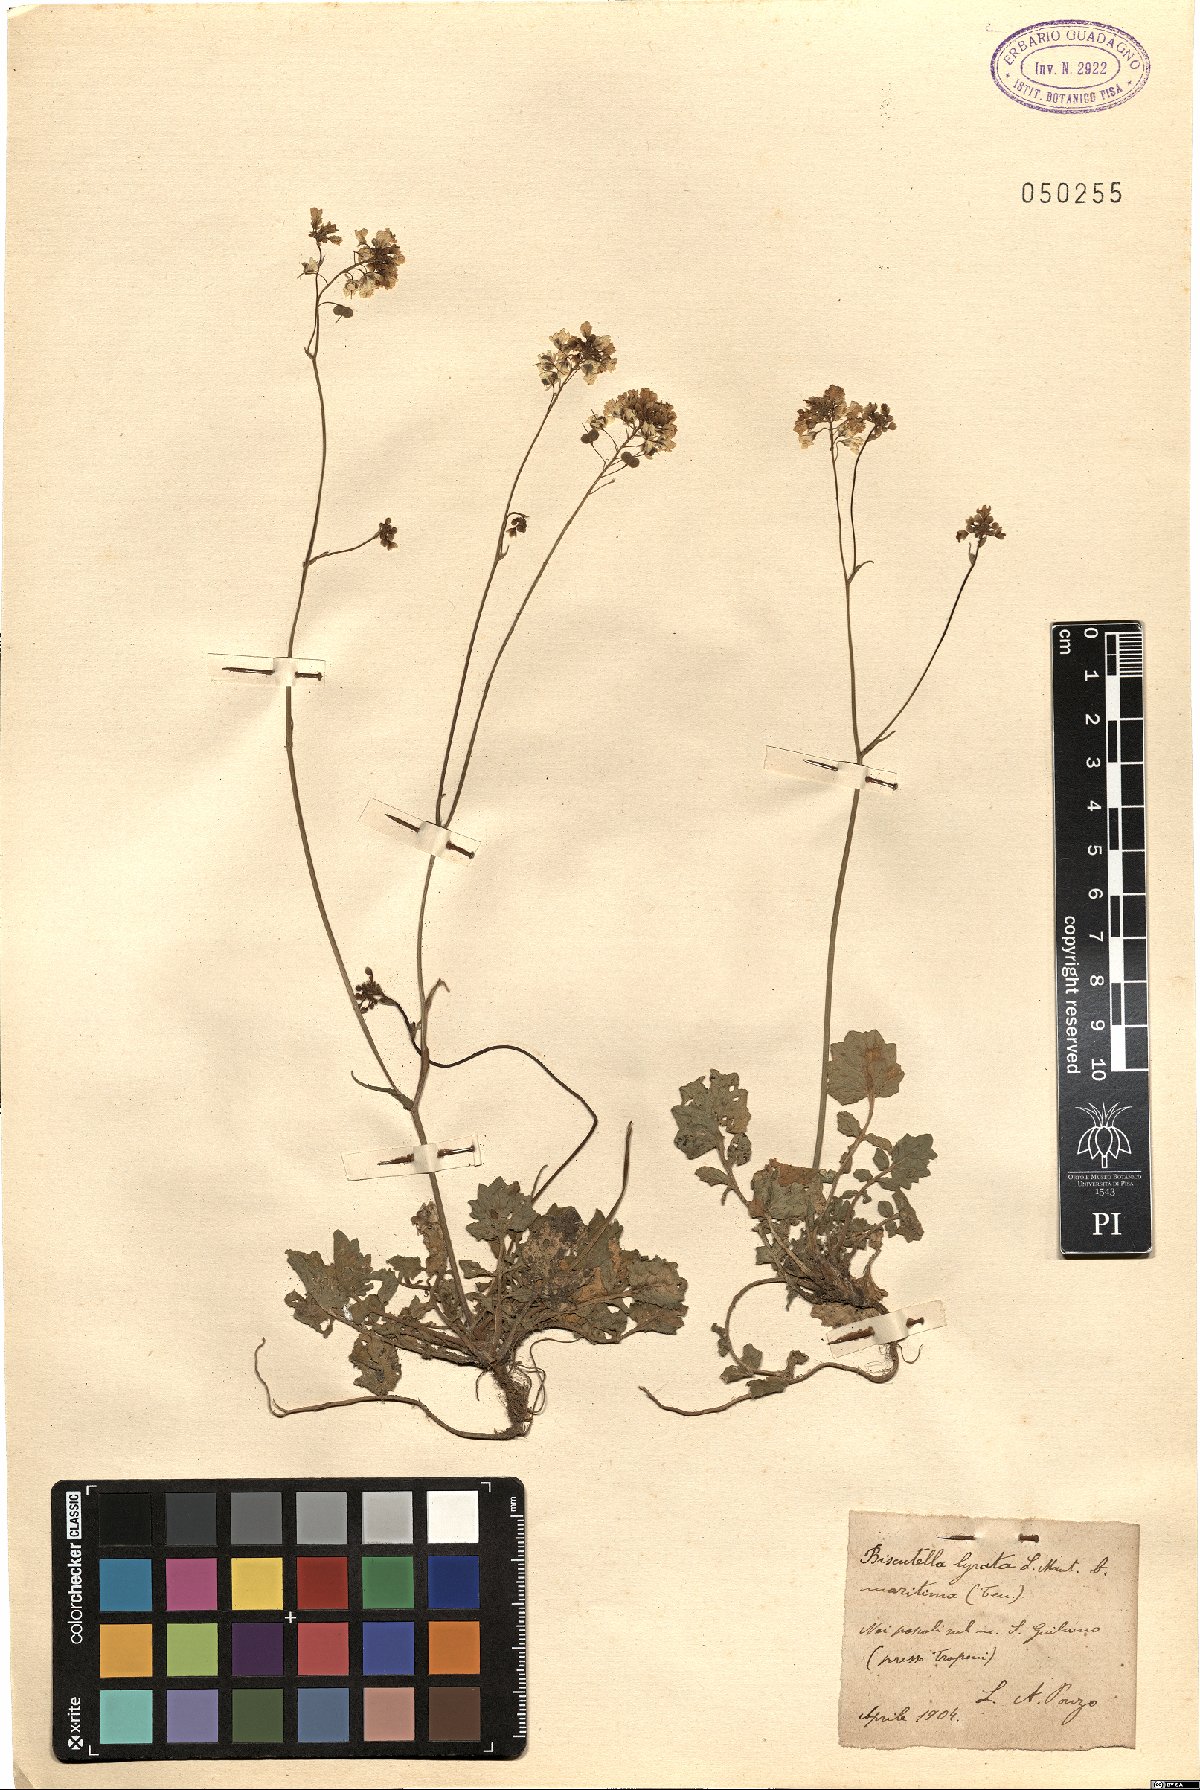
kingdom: Plantae
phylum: Tracheophyta
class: Magnoliopsida
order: Brassicales
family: Brassicaceae
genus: Biscutella
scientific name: Biscutella maritima
